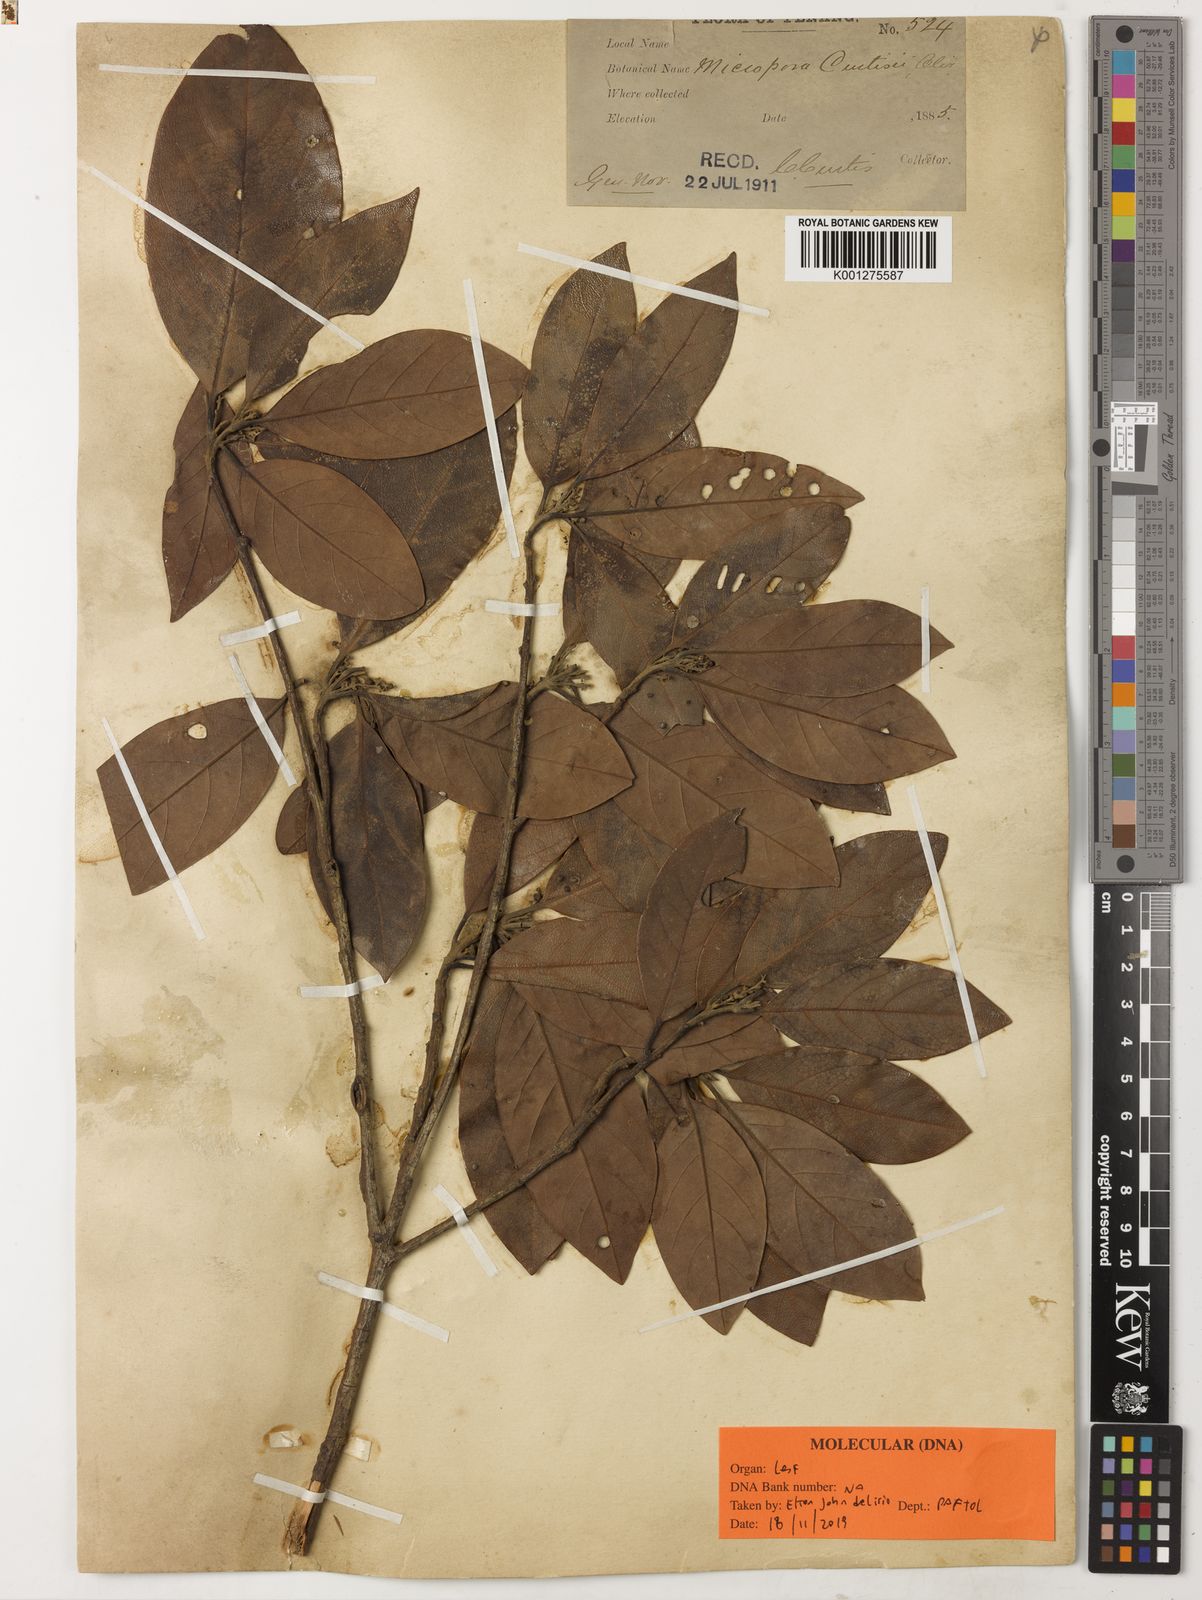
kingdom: Plantae
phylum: Tracheophyta
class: Magnoliopsida
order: Laurales
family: Lauraceae
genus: Hexapora
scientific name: Hexapora curtisii
